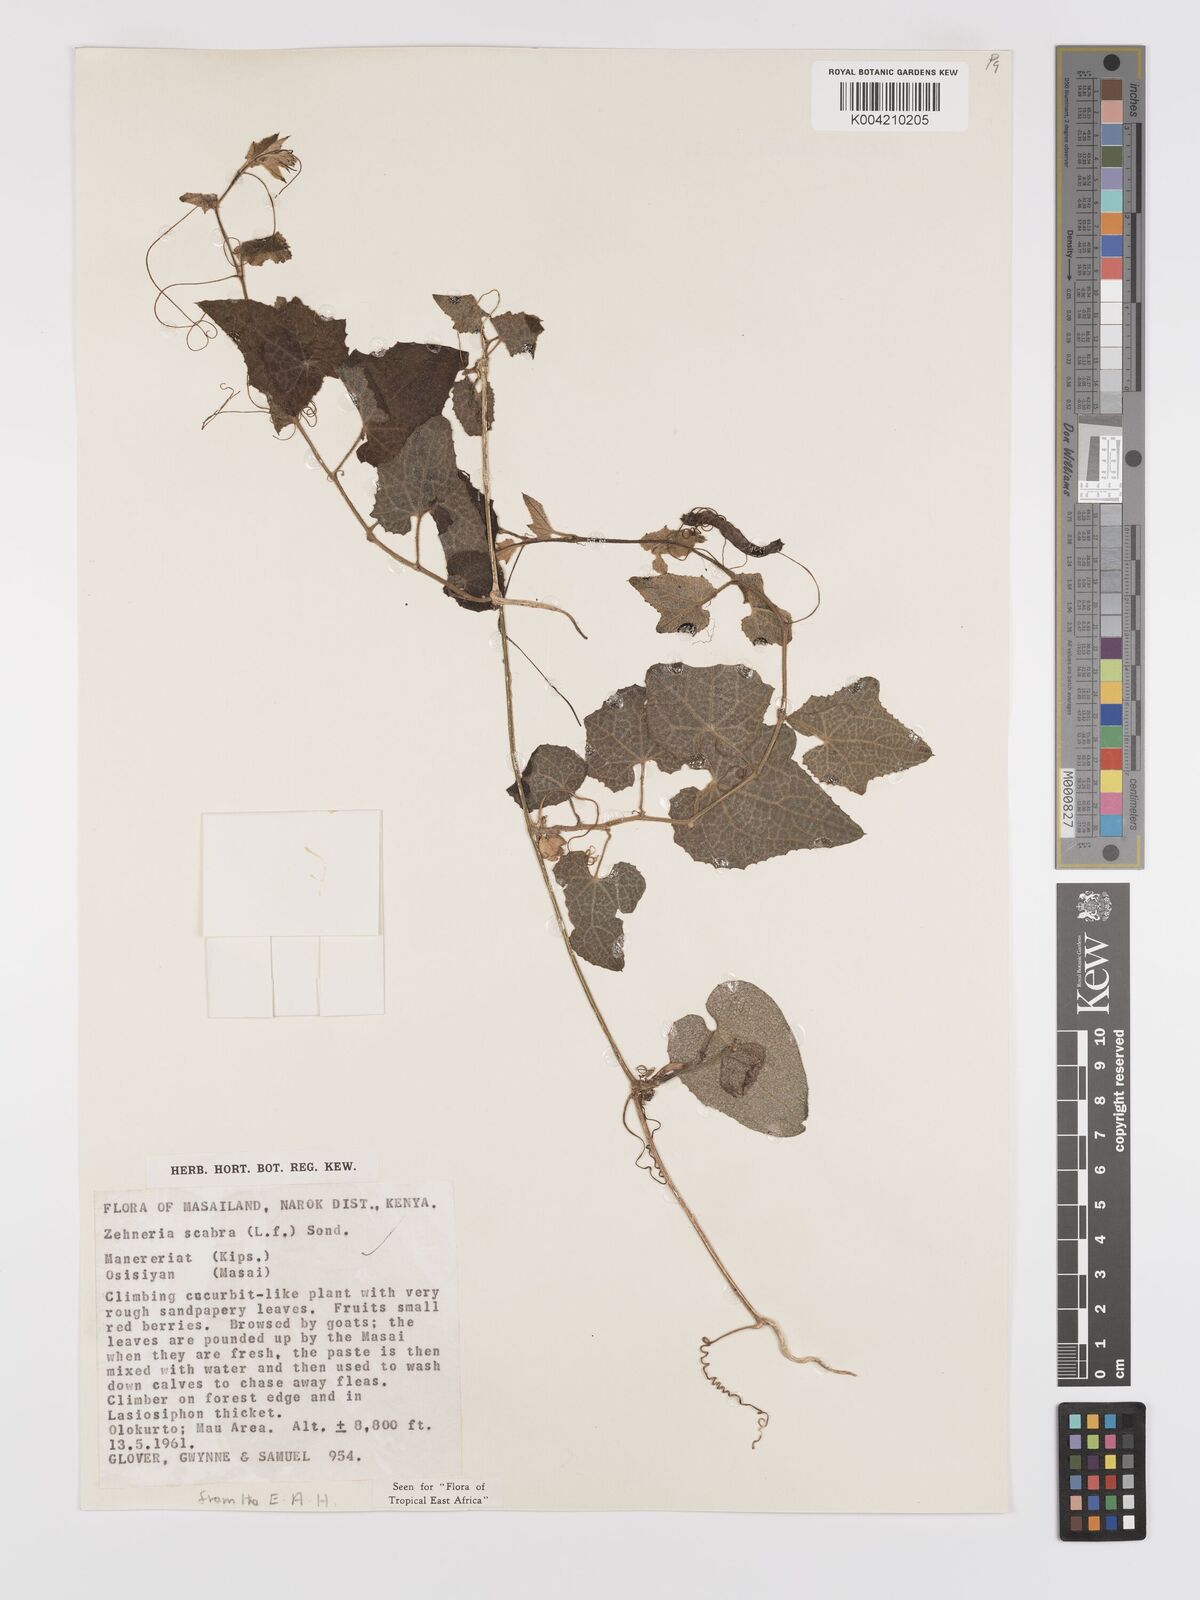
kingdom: Plantae
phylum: Tracheophyta
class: Magnoliopsida
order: Cucurbitales
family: Cucurbitaceae
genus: Zehneria
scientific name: Zehneria scabra
